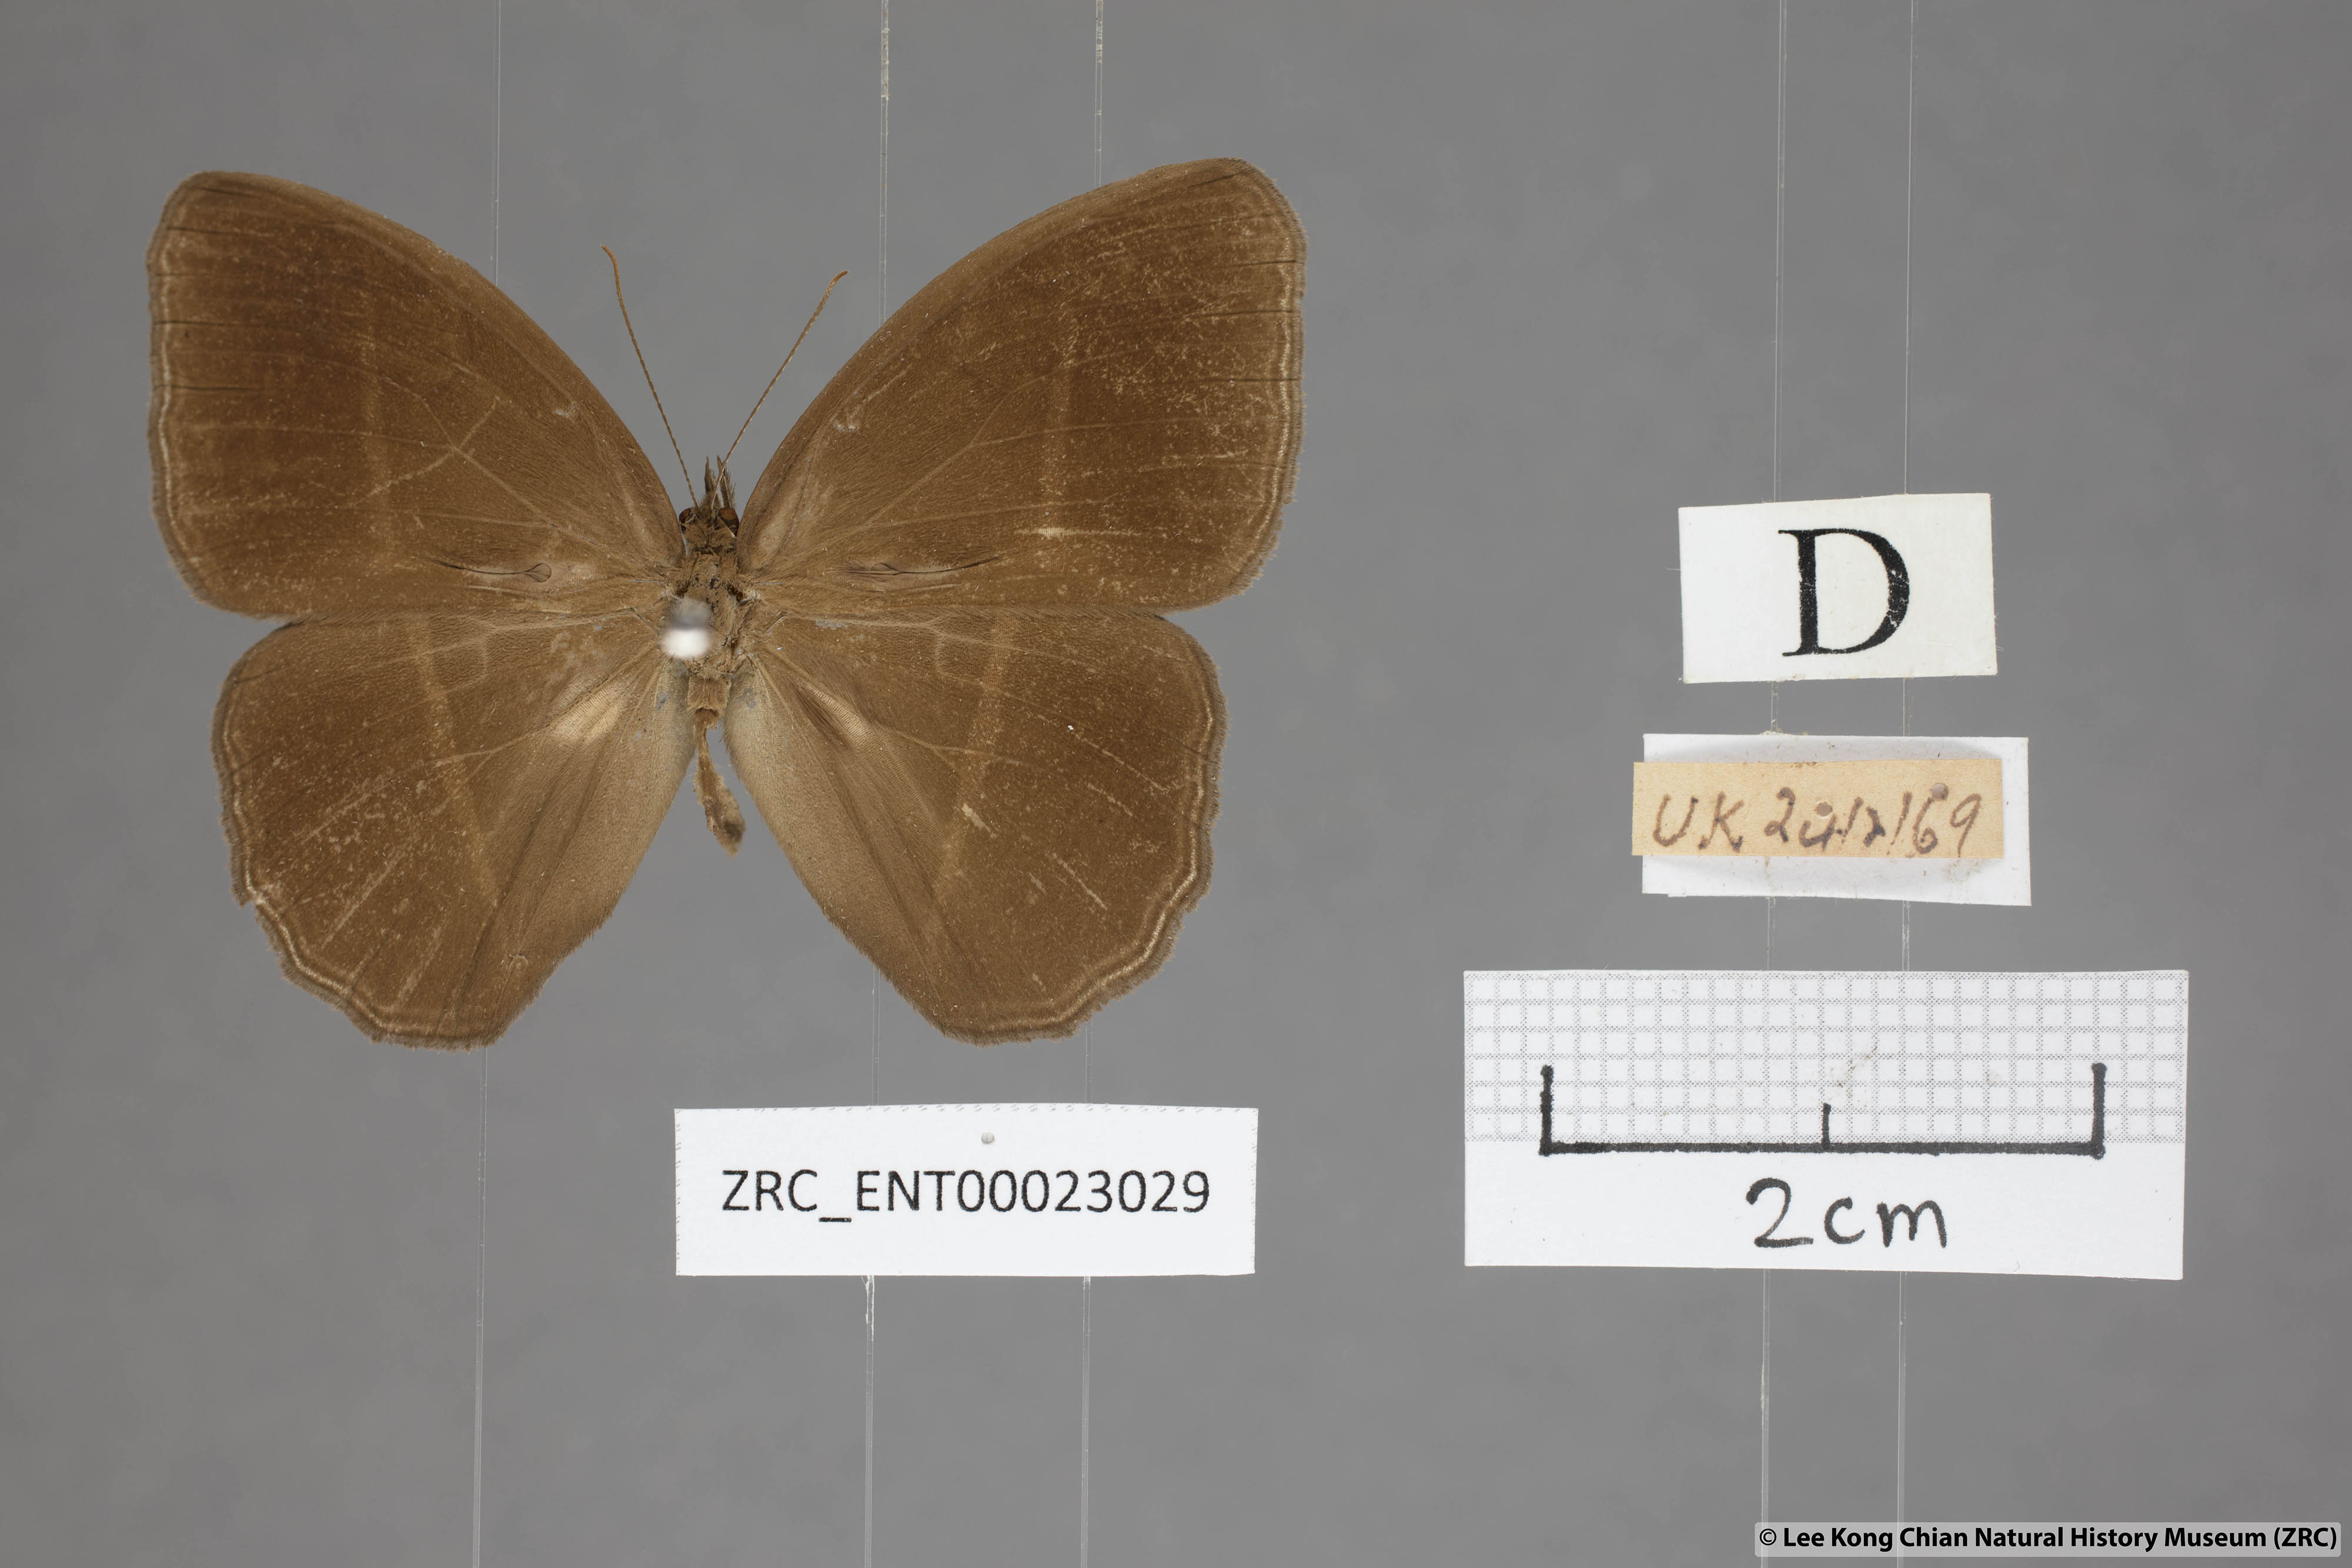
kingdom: Animalia
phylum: Arthropoda
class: Insecta
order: Lepidoptera
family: Nymphalidae
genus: Orsotriaena
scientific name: Orsotriaena medus
